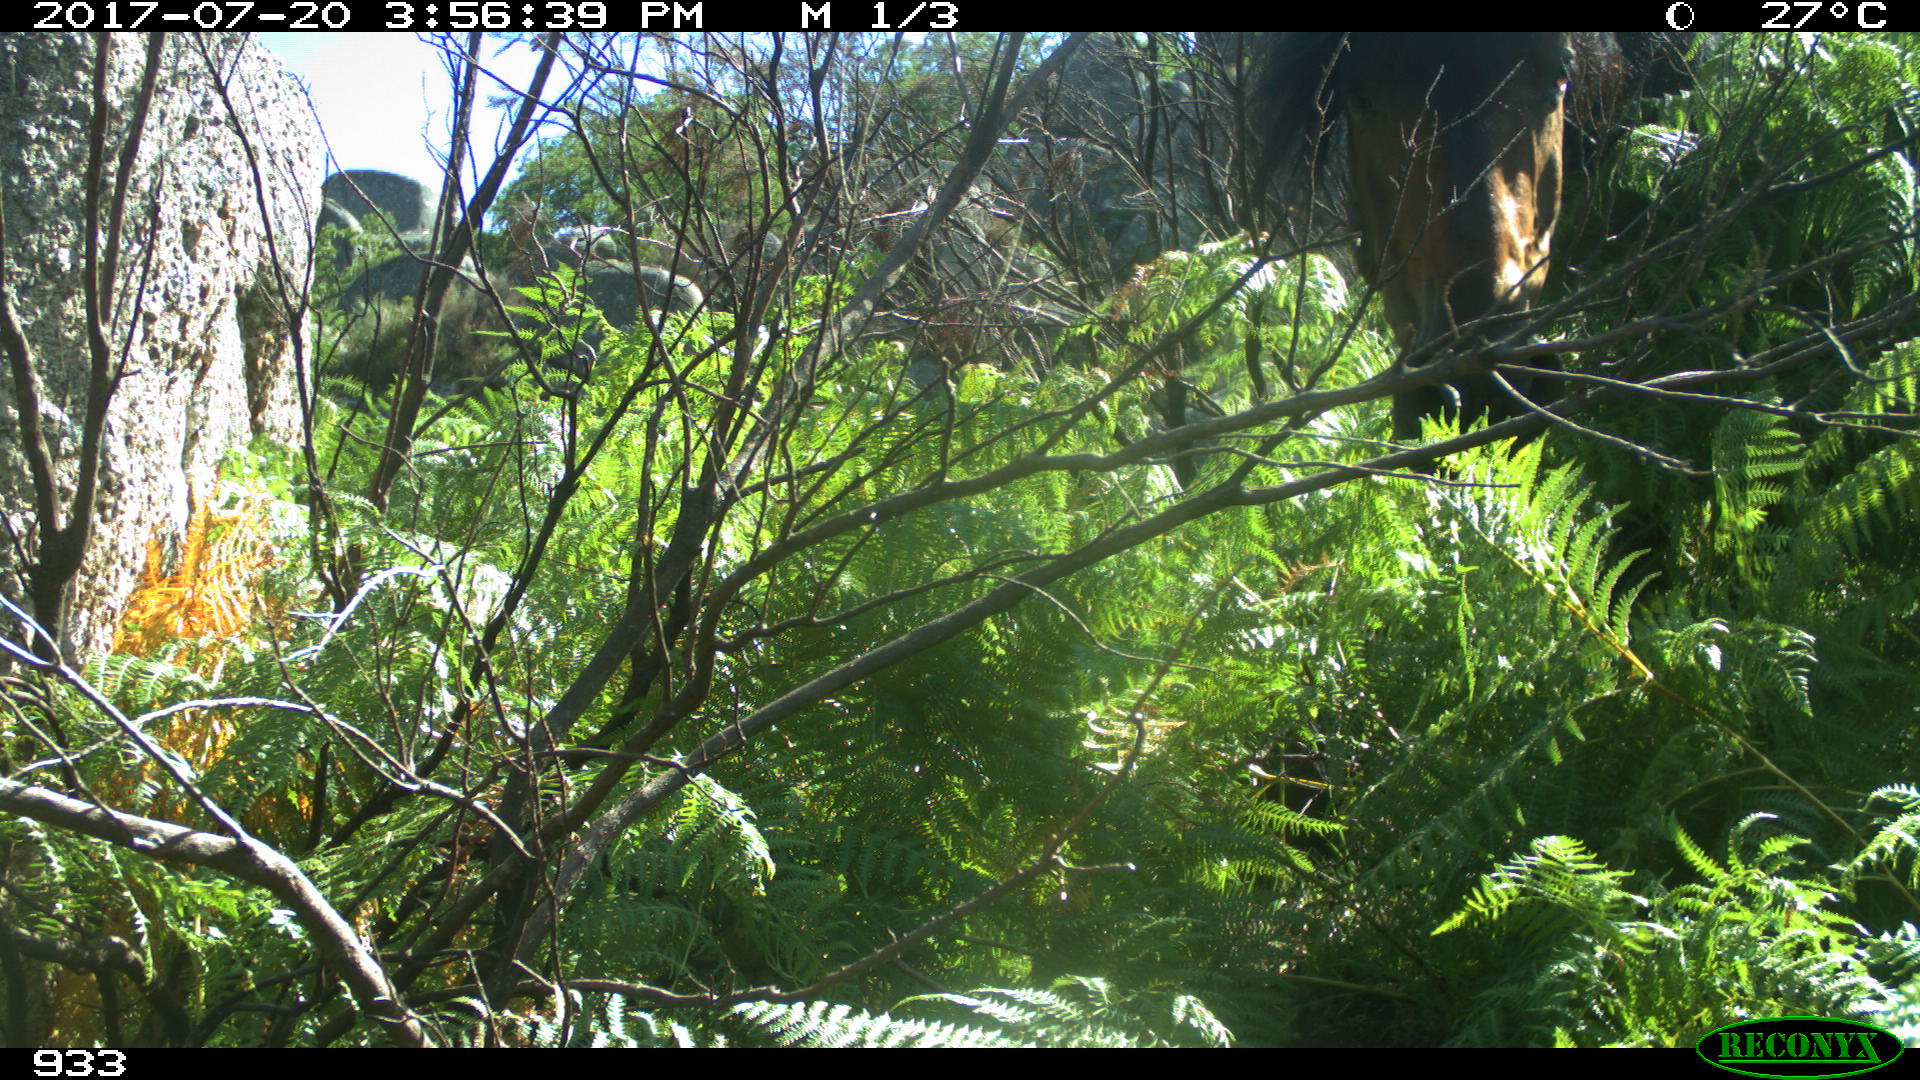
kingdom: Animalia
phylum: Chordata
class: Mammalia
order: Perissodactyla
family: Equidae
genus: Equus
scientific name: Equus caballus
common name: Horse
